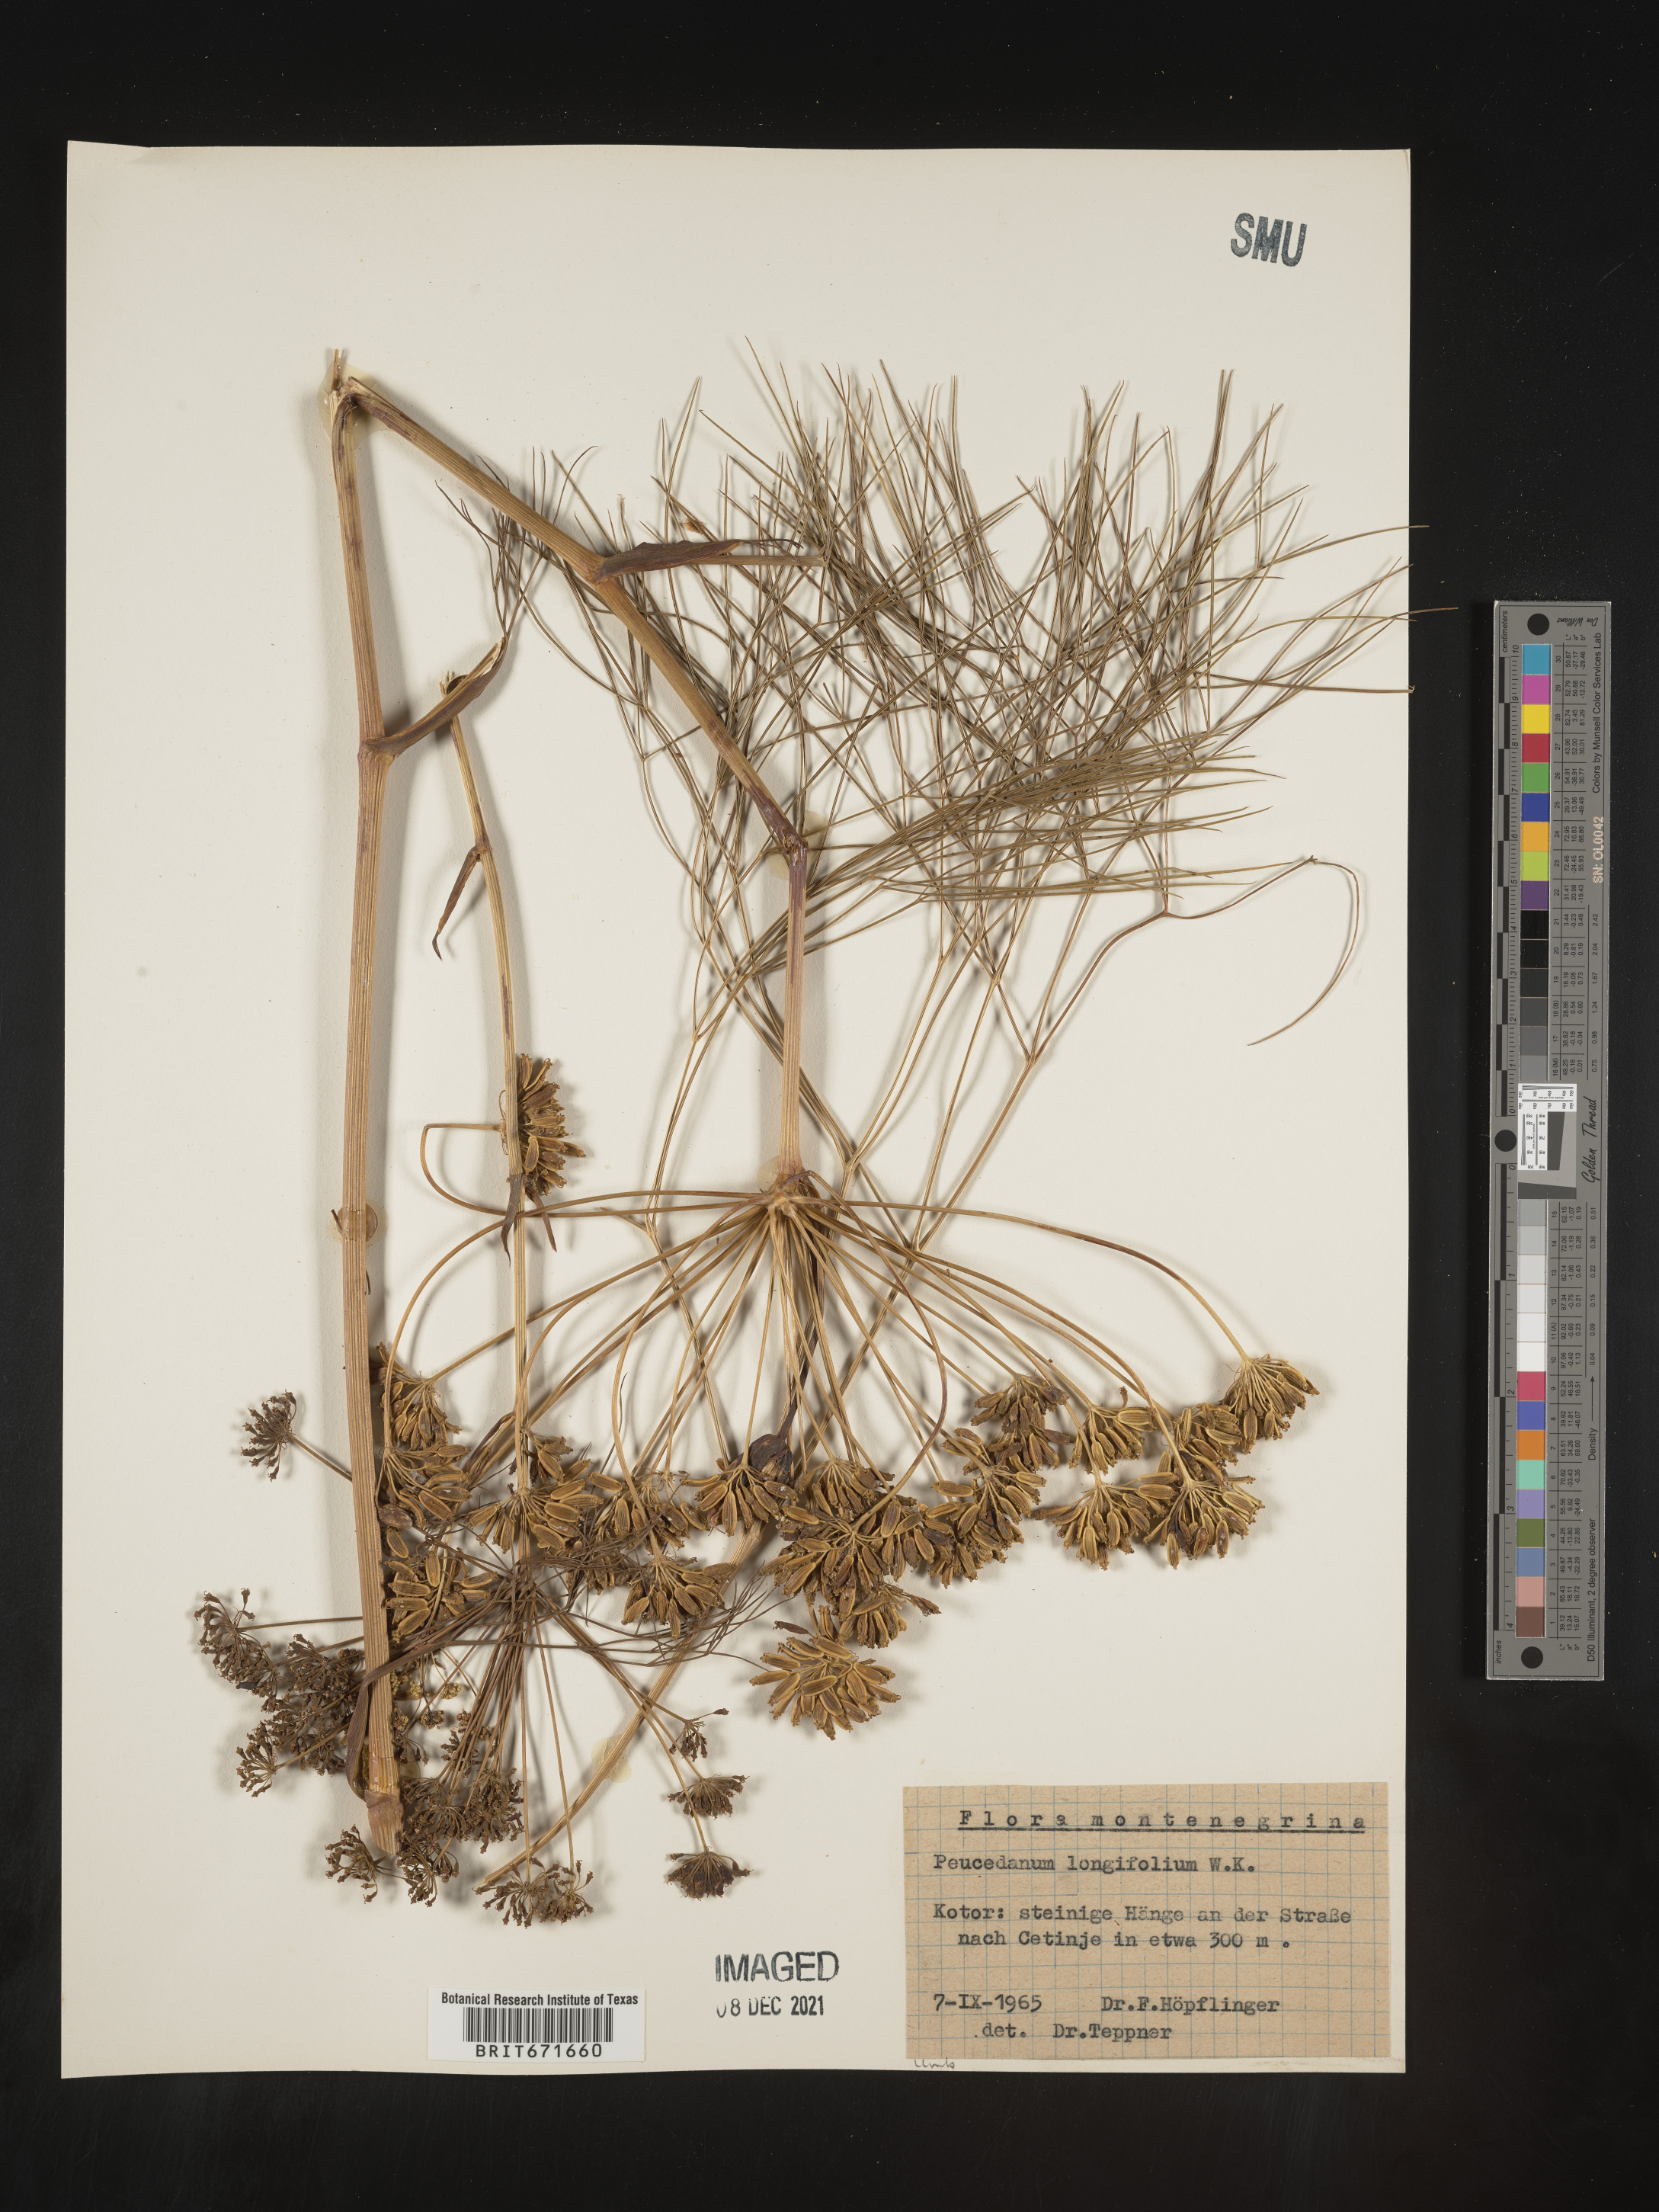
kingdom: Plantae
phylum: Tracheophyta
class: Magnoliopsida
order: Apiales
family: Apiaceae
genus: Peucedanum
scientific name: Peucedanum
